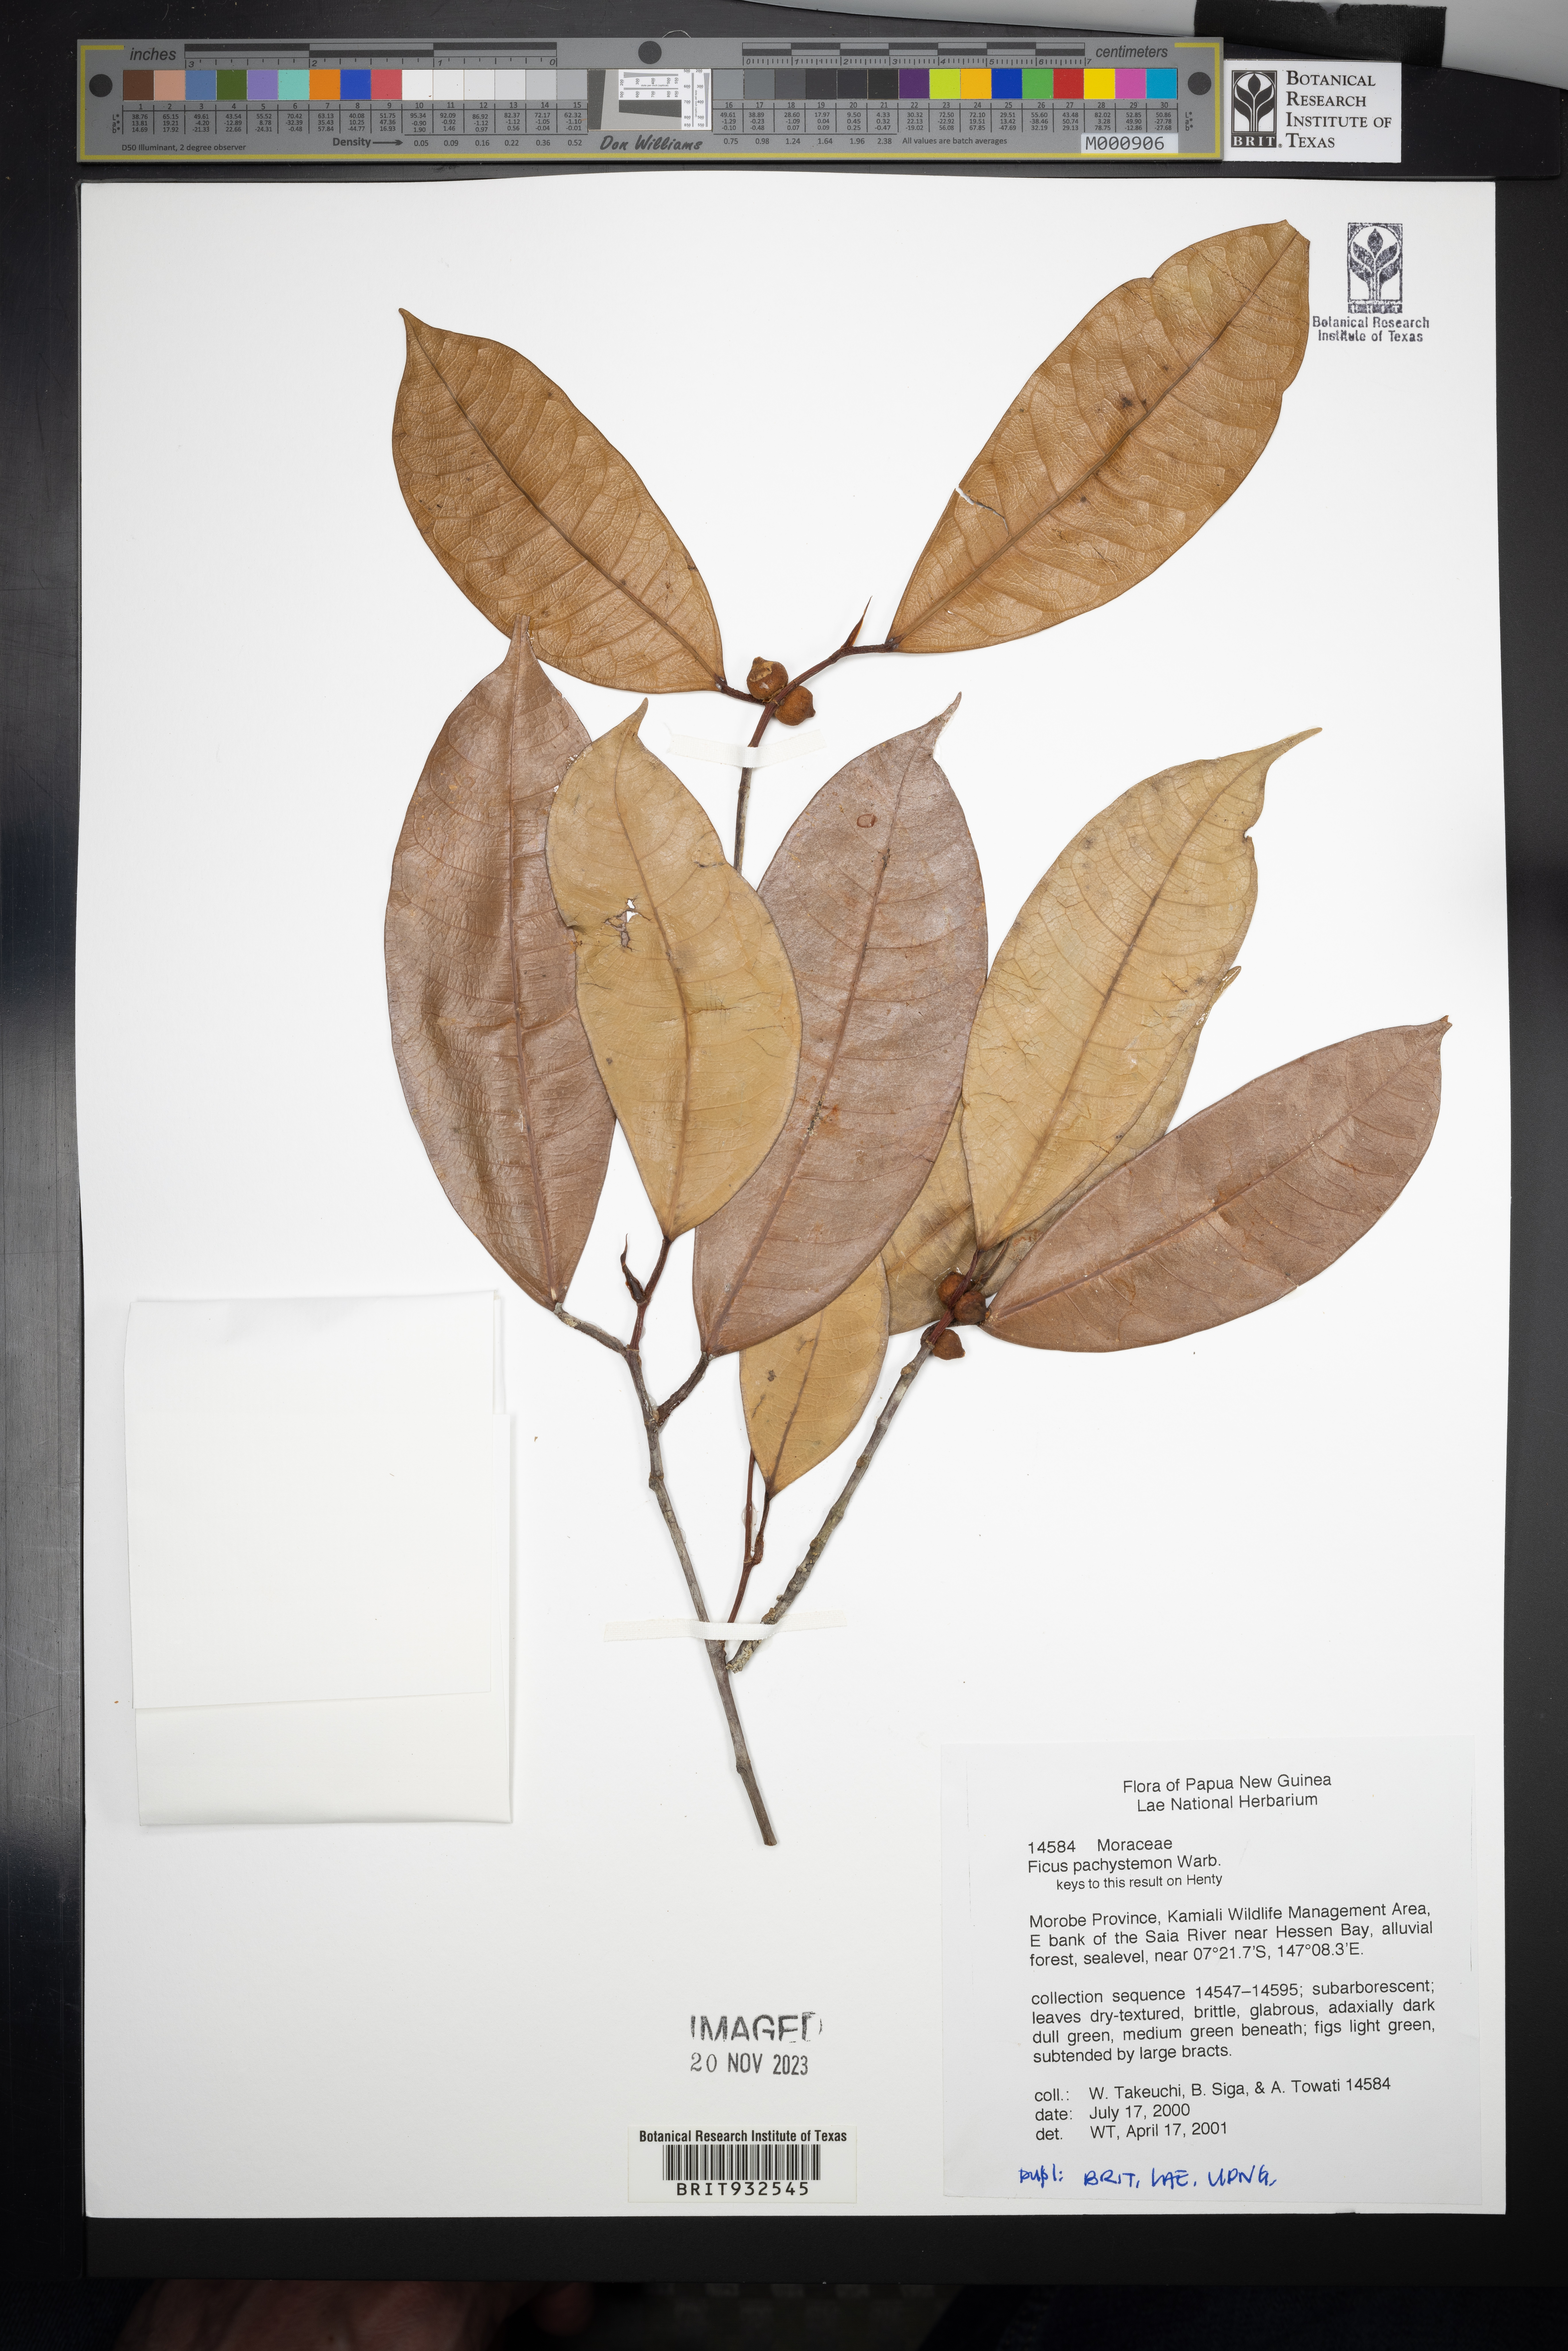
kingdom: Plantae
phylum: Tracheophyta
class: Magnoliopsida
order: Rosales
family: Moraceae
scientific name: Moraceae
